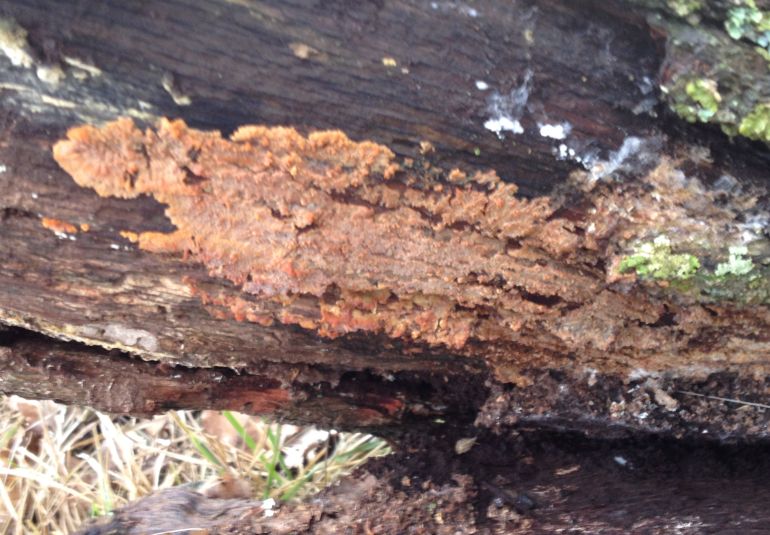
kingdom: Fungi
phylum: Basidiomycota
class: Agaricomycetes
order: Polyporales
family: Meruliaceae
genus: Phlebia
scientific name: Phlebia radiata
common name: stråle-åresvamp
